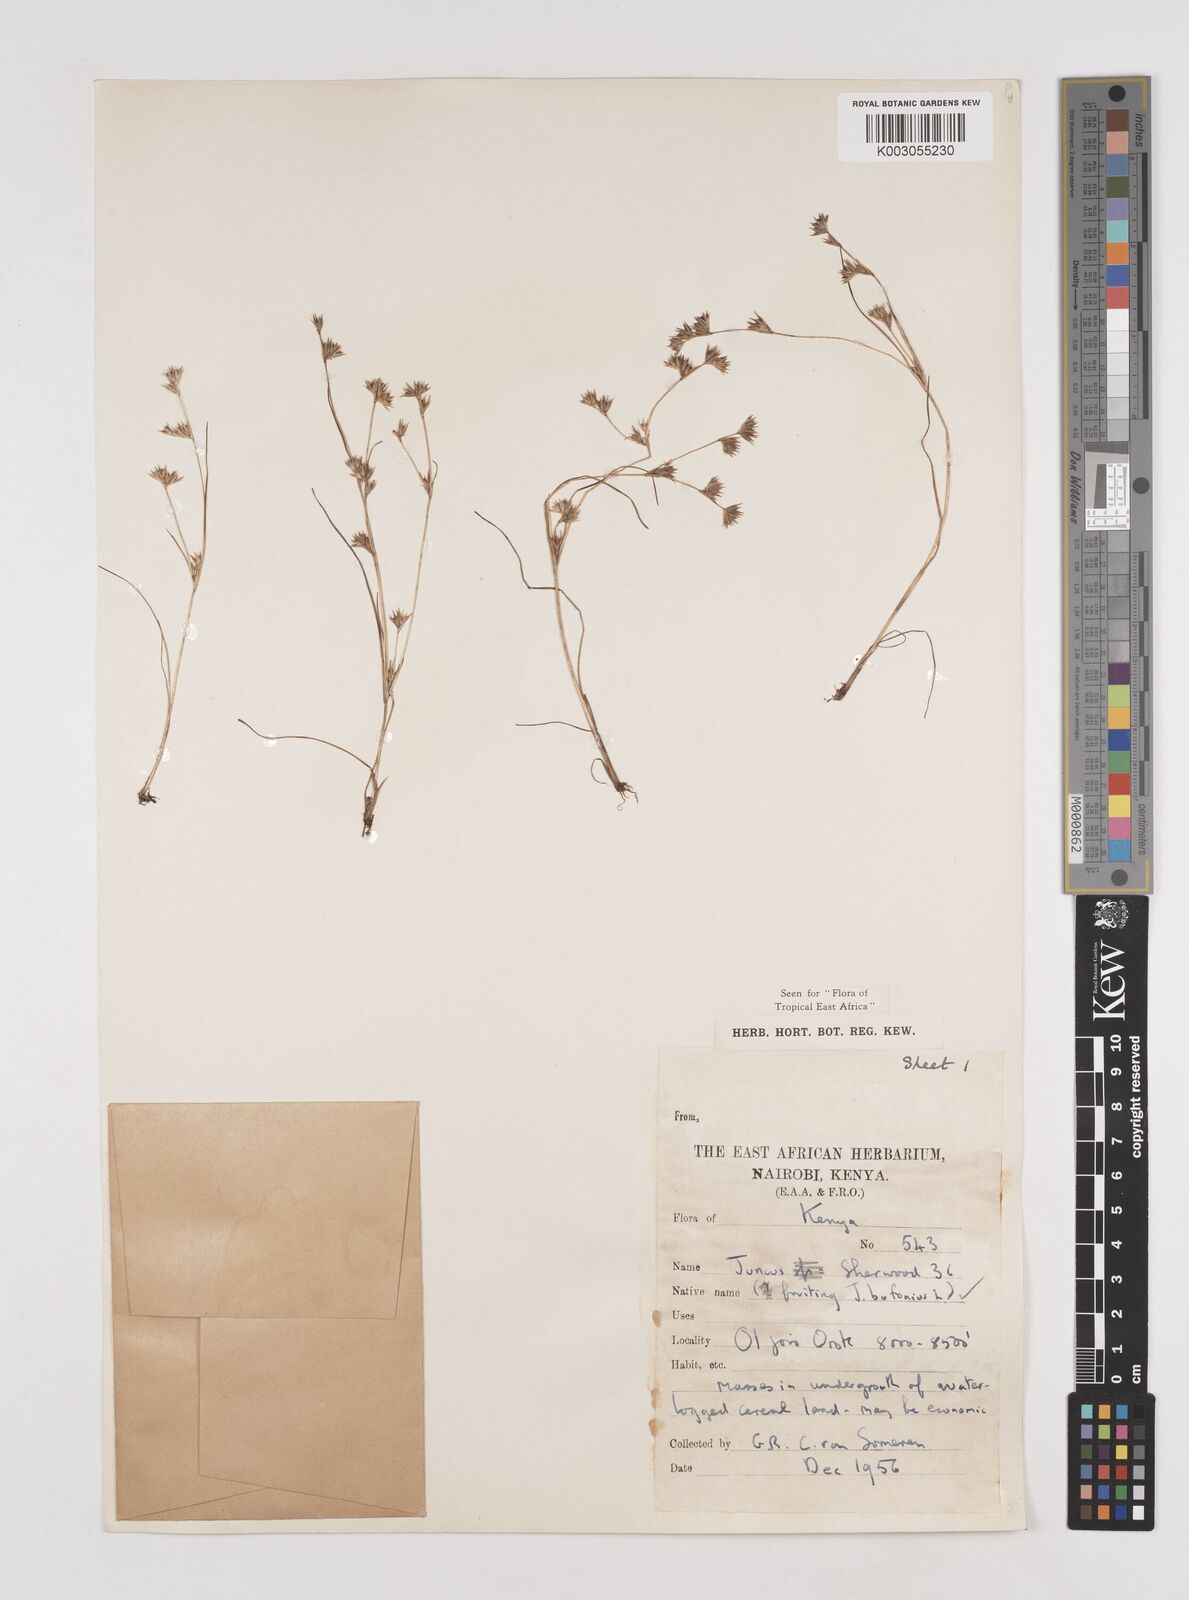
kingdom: Plantae
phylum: Tracheophyta
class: Liliopsida
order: Poales
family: Juncaceae
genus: Juncus
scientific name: Juncus bufonius
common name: Toad rush
